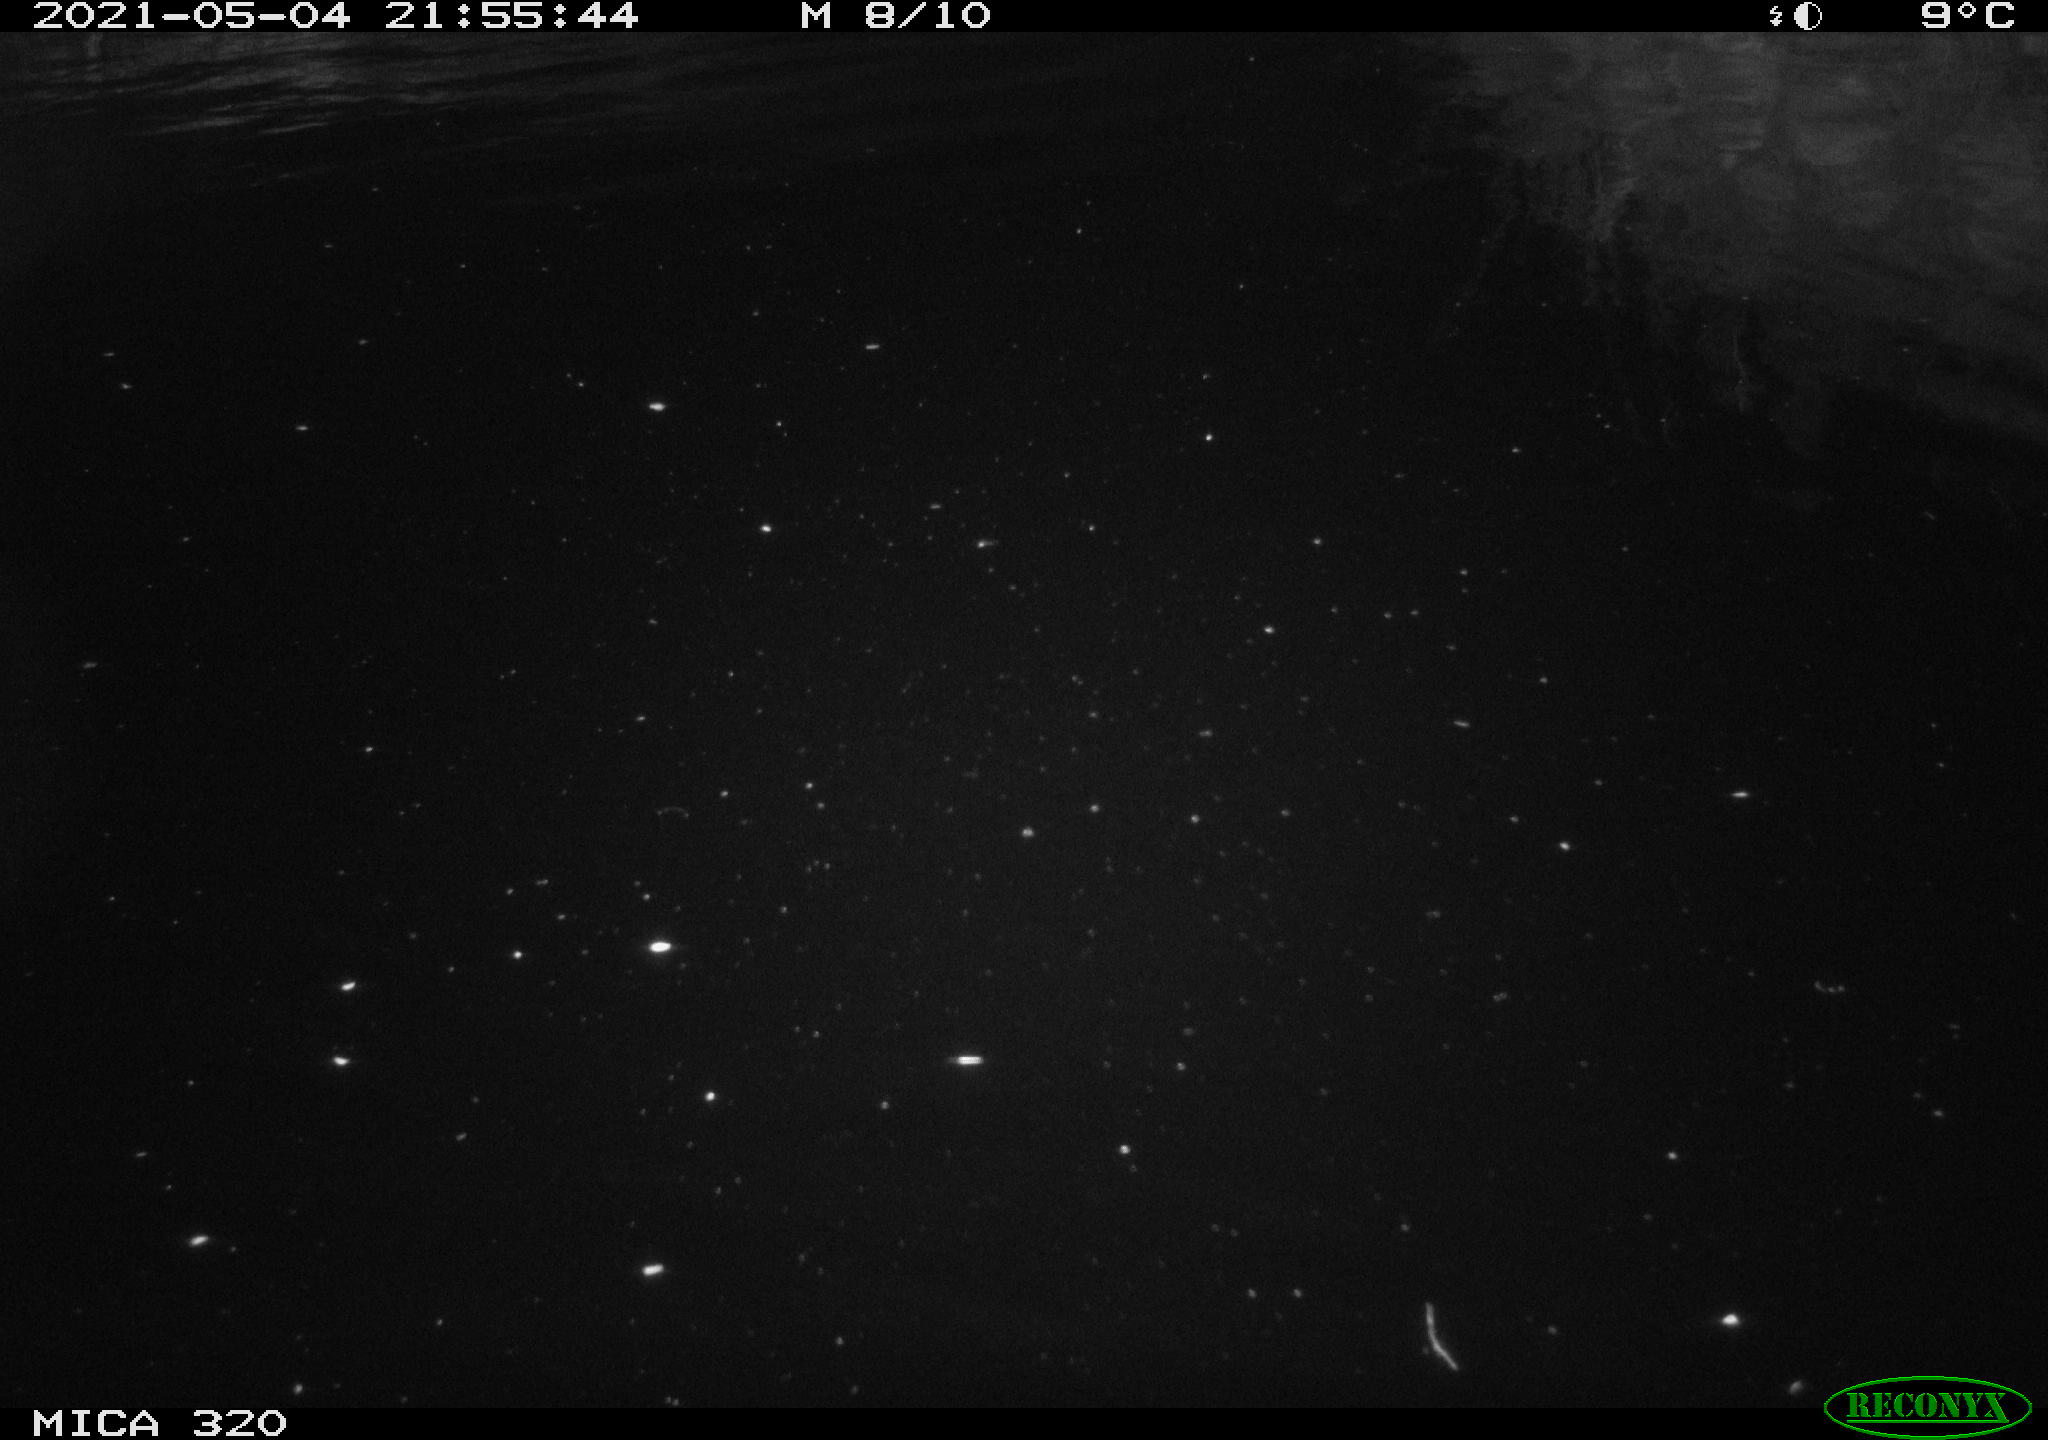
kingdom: Animalia
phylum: Chordata
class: Aves
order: Anseriformes
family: Anatidae
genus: Anas
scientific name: Anas platyrhynchos
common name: Mallard
